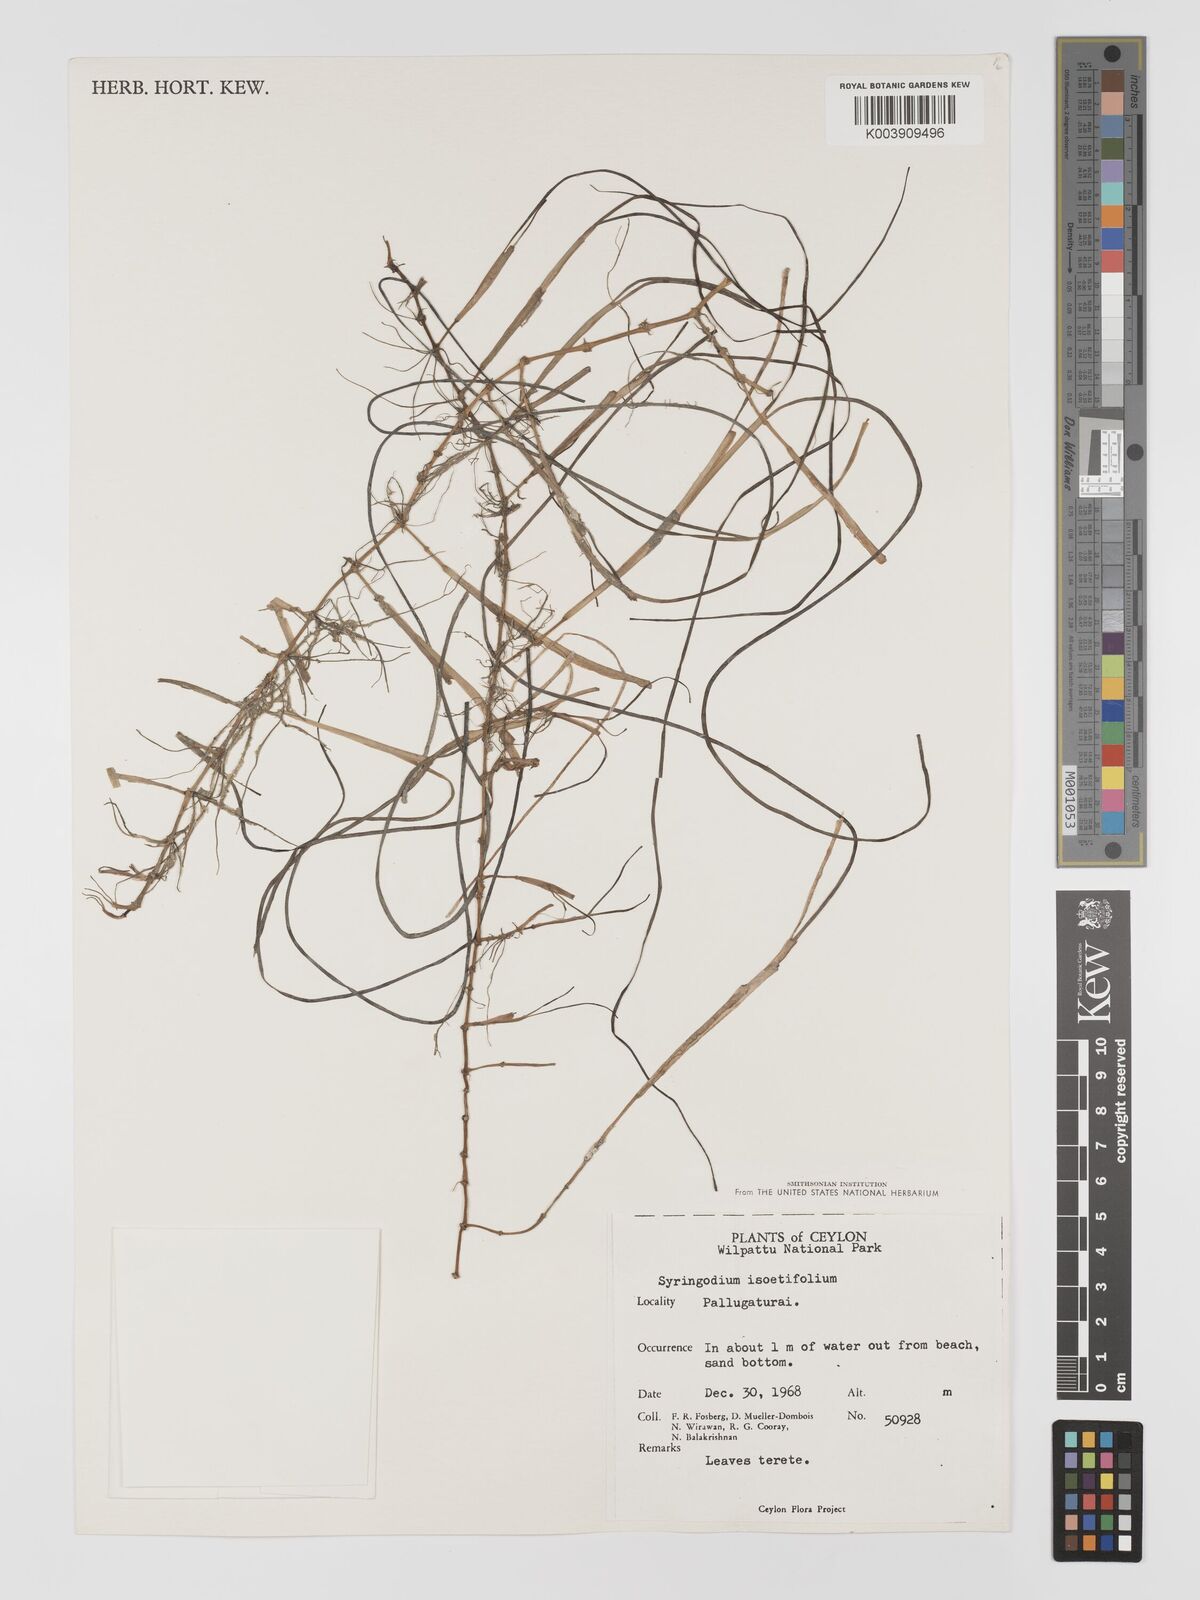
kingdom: Plantae
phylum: Tracheophyta
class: Liliopsida
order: Alismatales
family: Cymodoceaceae
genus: Syringodium
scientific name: Syringodium isoetifolium
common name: Species code: si
